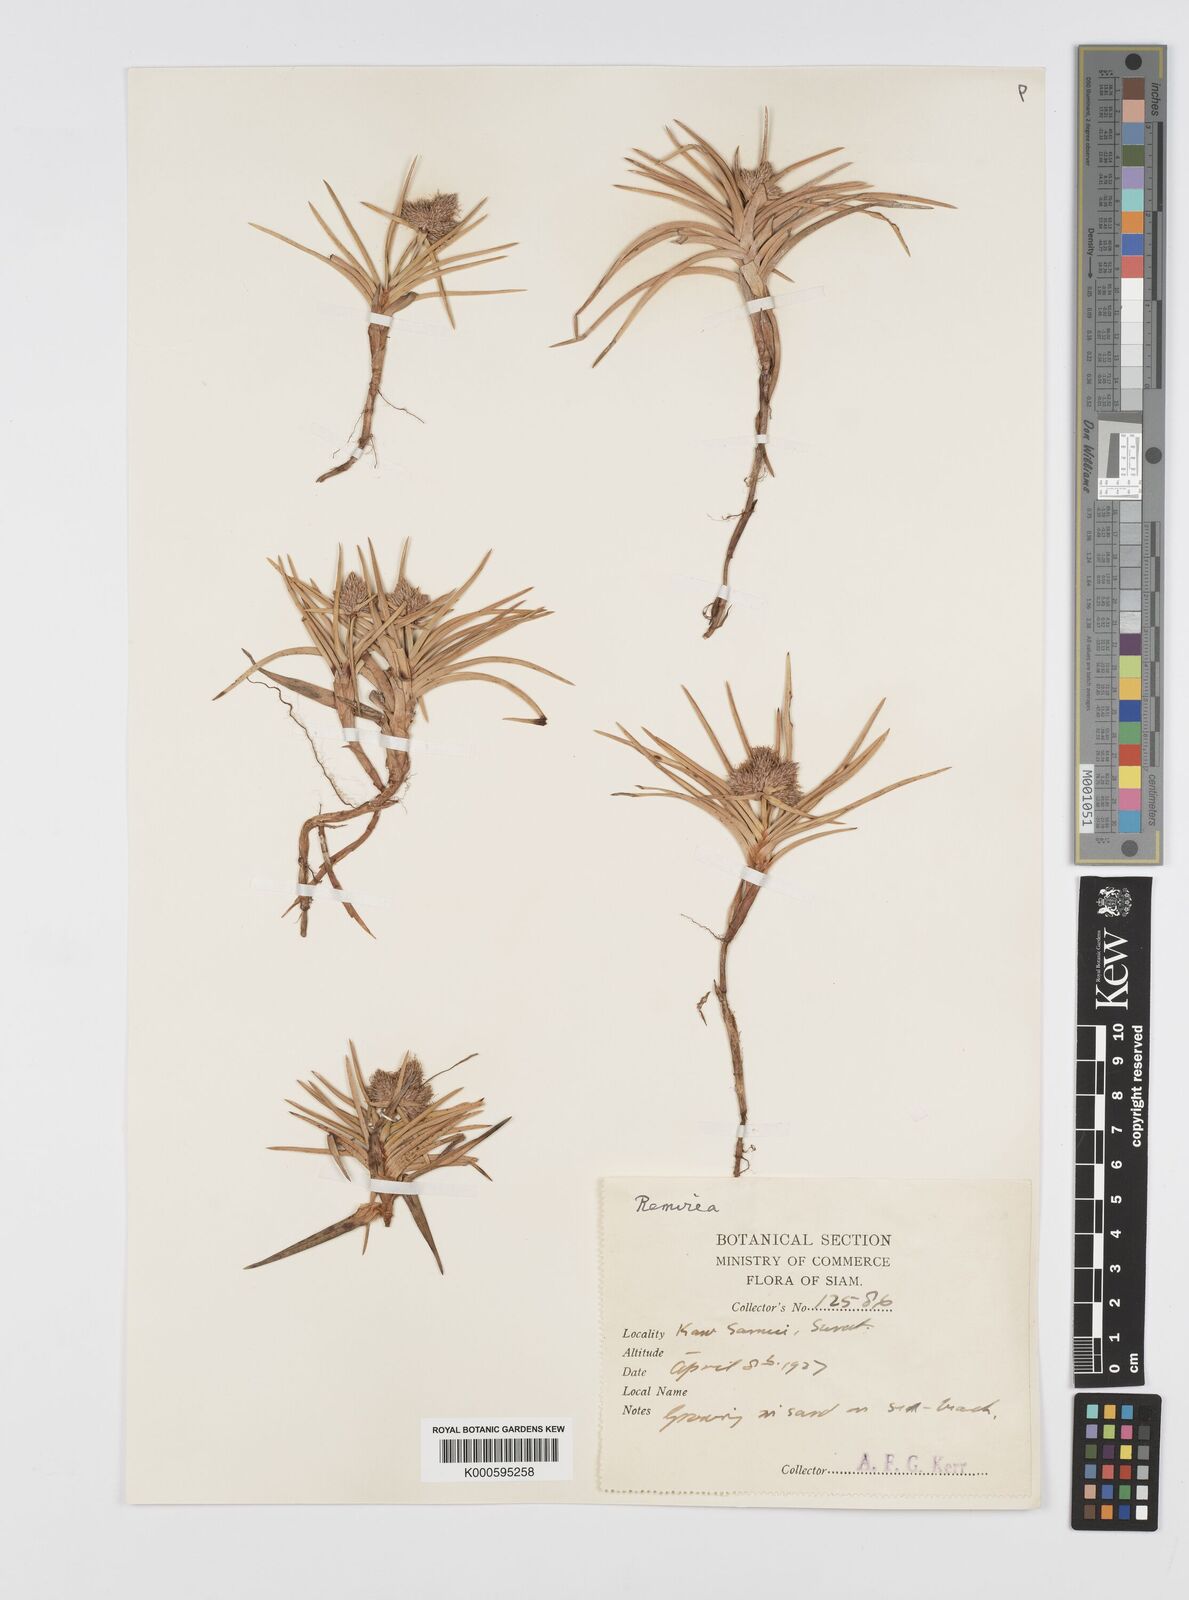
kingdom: Plantae
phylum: Tracheophyta
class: Liliopsida
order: Poales
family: Cyperaceae
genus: Cyperus
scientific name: Cyperus pedunculatus
